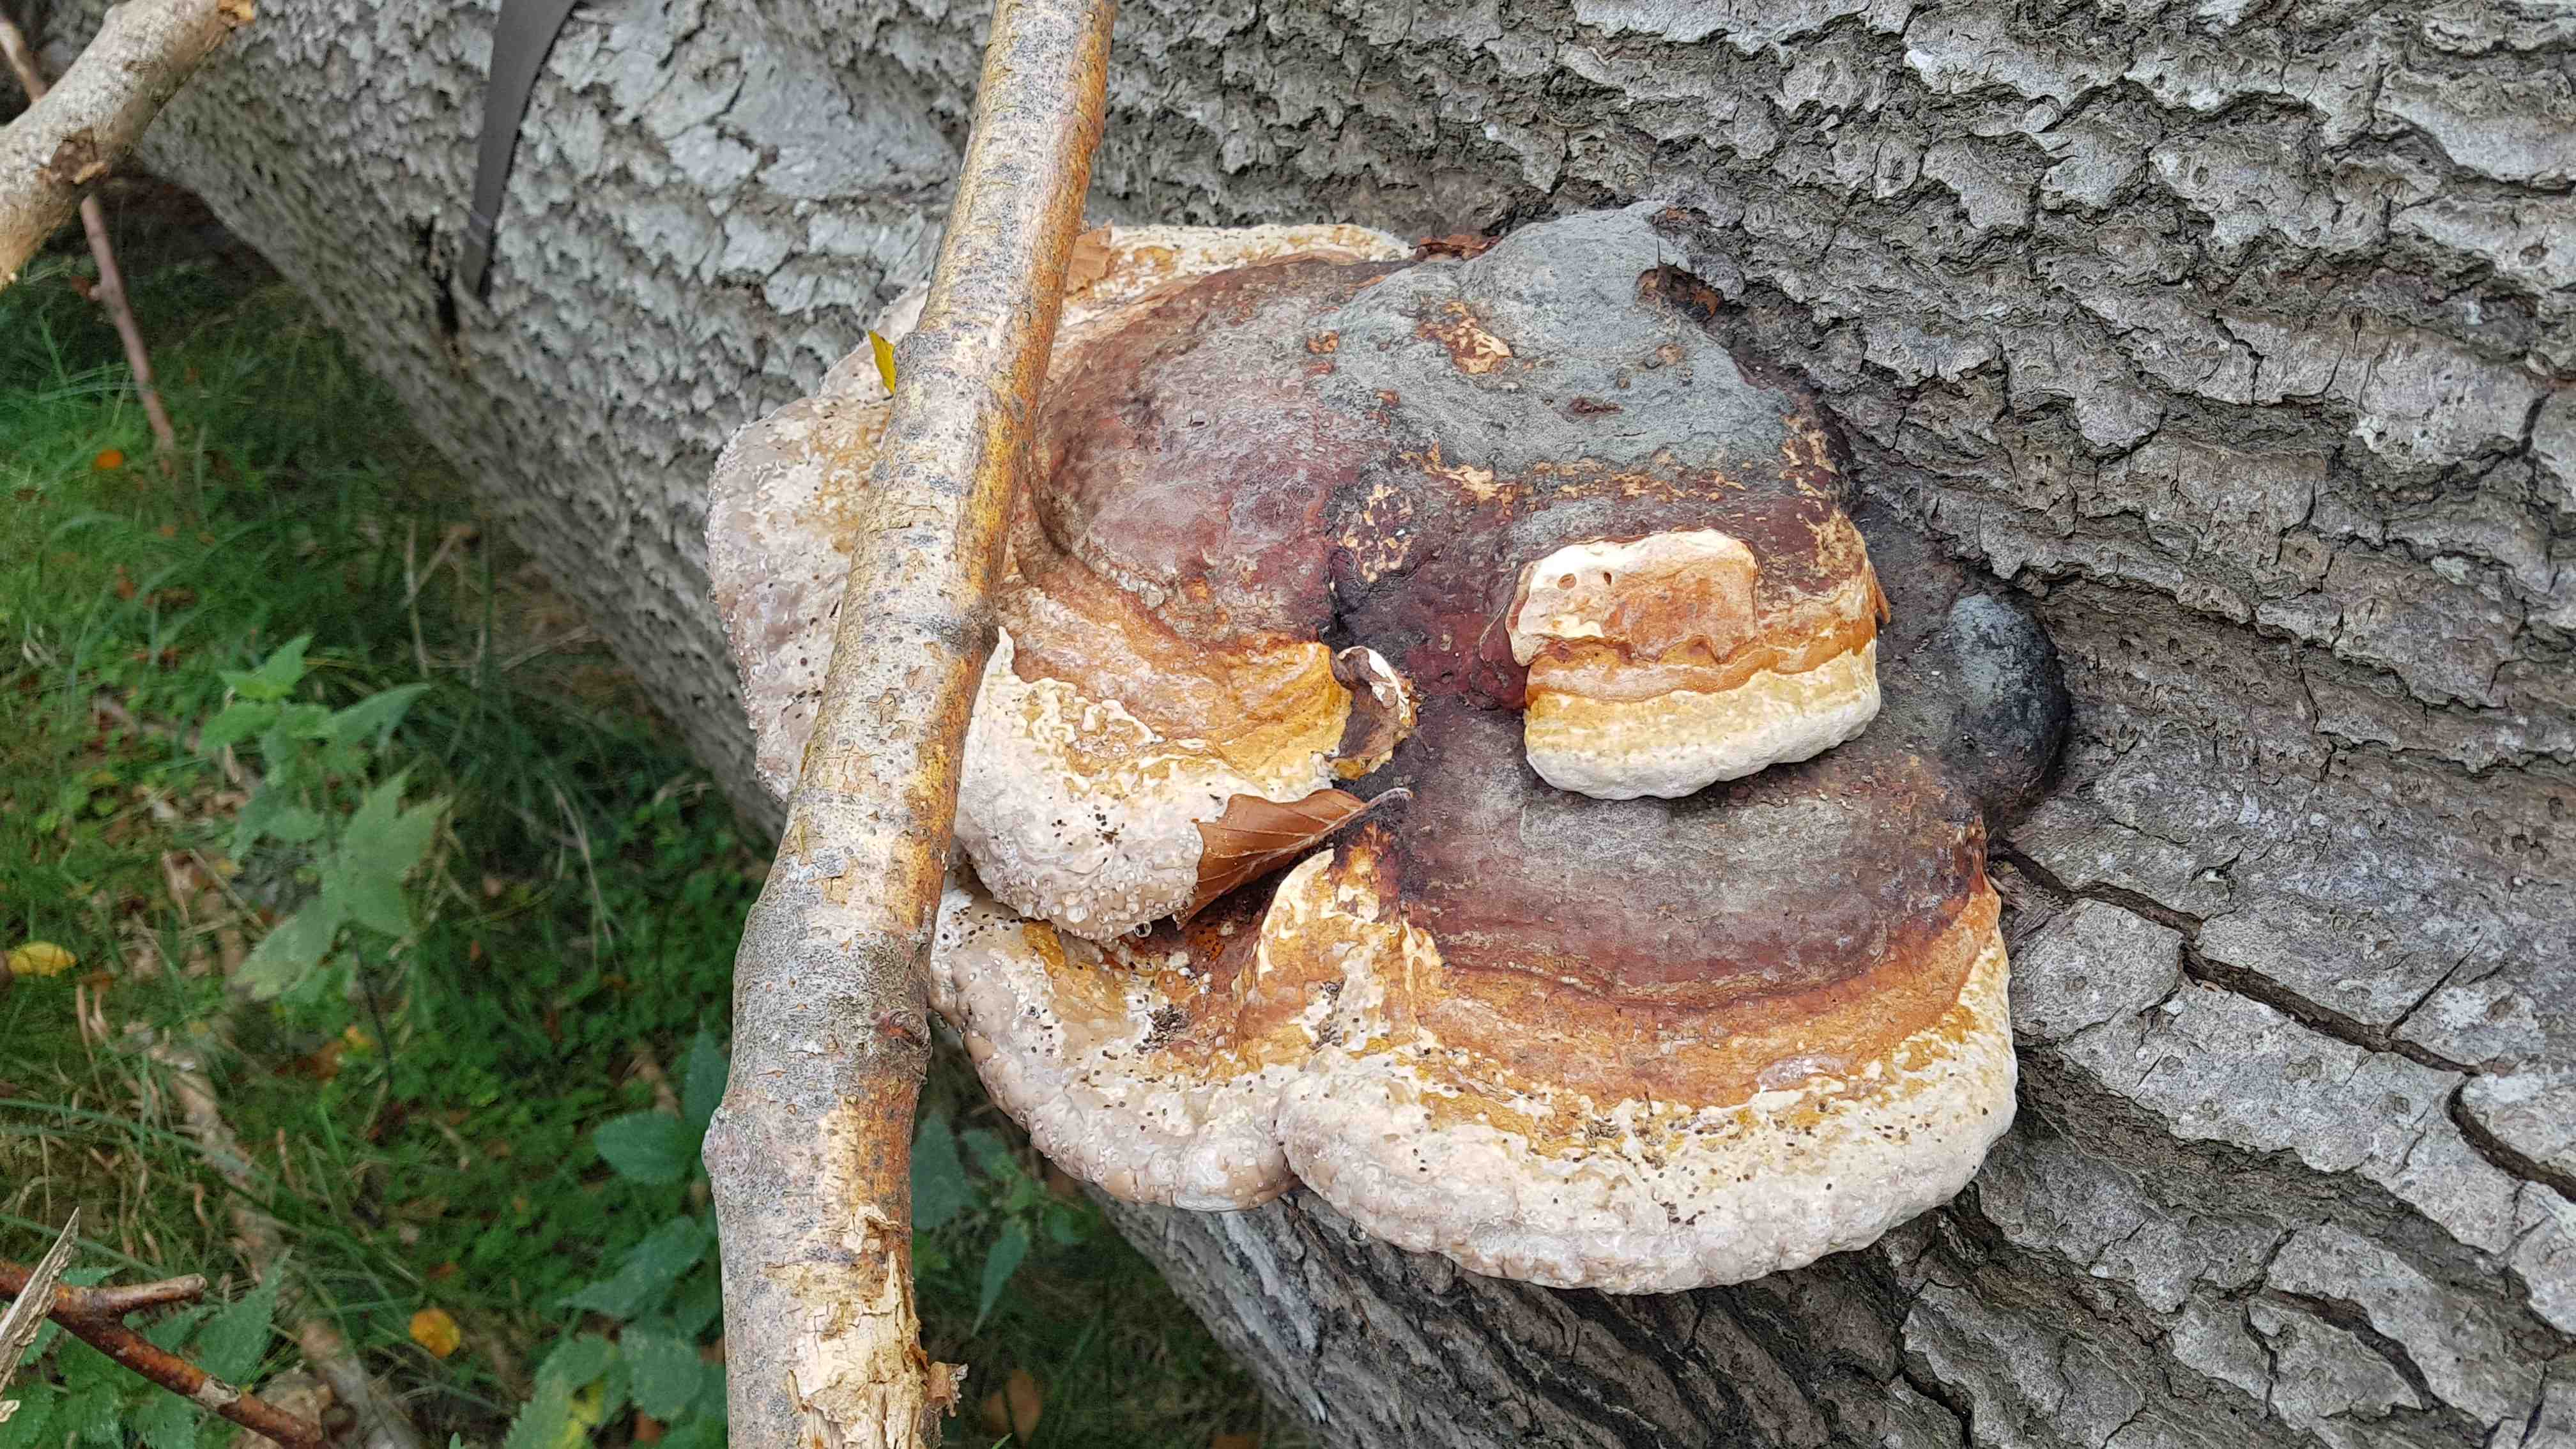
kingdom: Fungi
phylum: Basidiomycota
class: Agaricomycetes
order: Polyporales
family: Fomitopsidaceae
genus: Fomitopsis
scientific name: Fomitopsis pinicola
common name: randbæltet hovporesvamp
